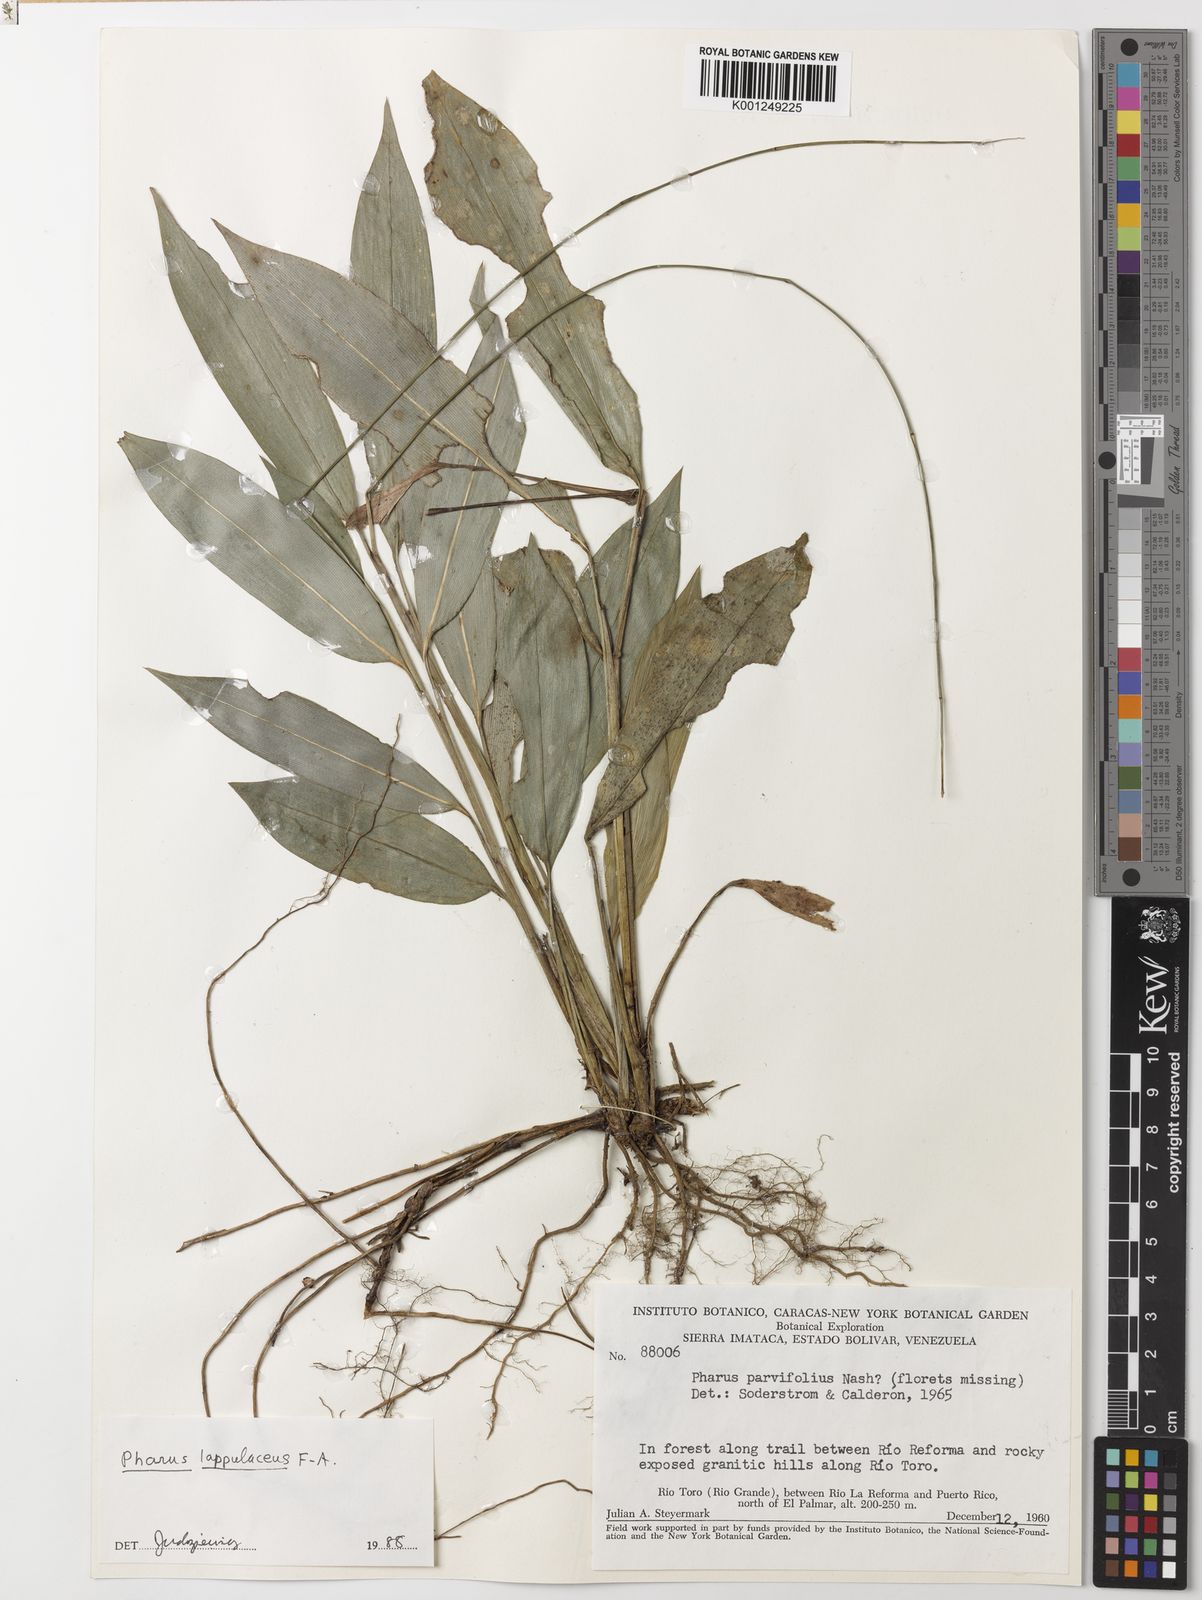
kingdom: Plantae
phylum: Tracheophyta
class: Liliopsida
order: Poales
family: Poaceae
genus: Pharus
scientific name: Pharus lappulaceus
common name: Creeping leafstalk grass
